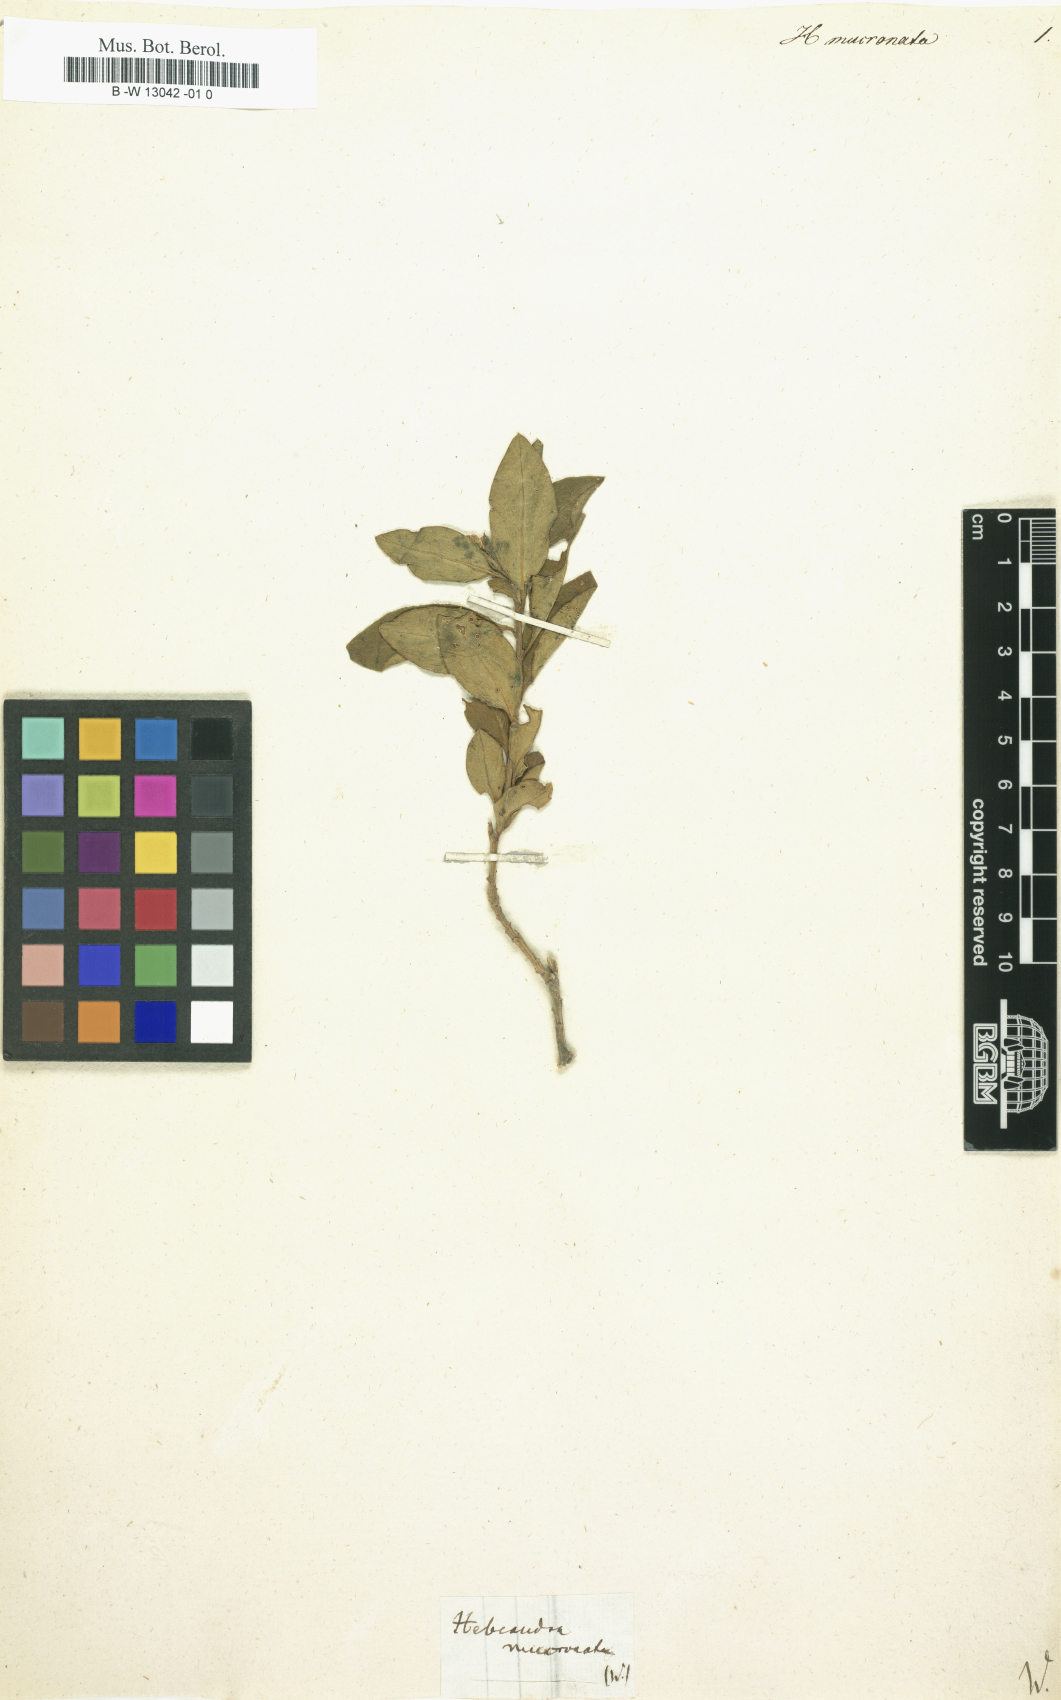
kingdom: Plantae
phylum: Tracheophyta
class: Magnoliopsida
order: Fabales
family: Polygalaceae
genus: Monnina
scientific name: Monnina bonplandiana
